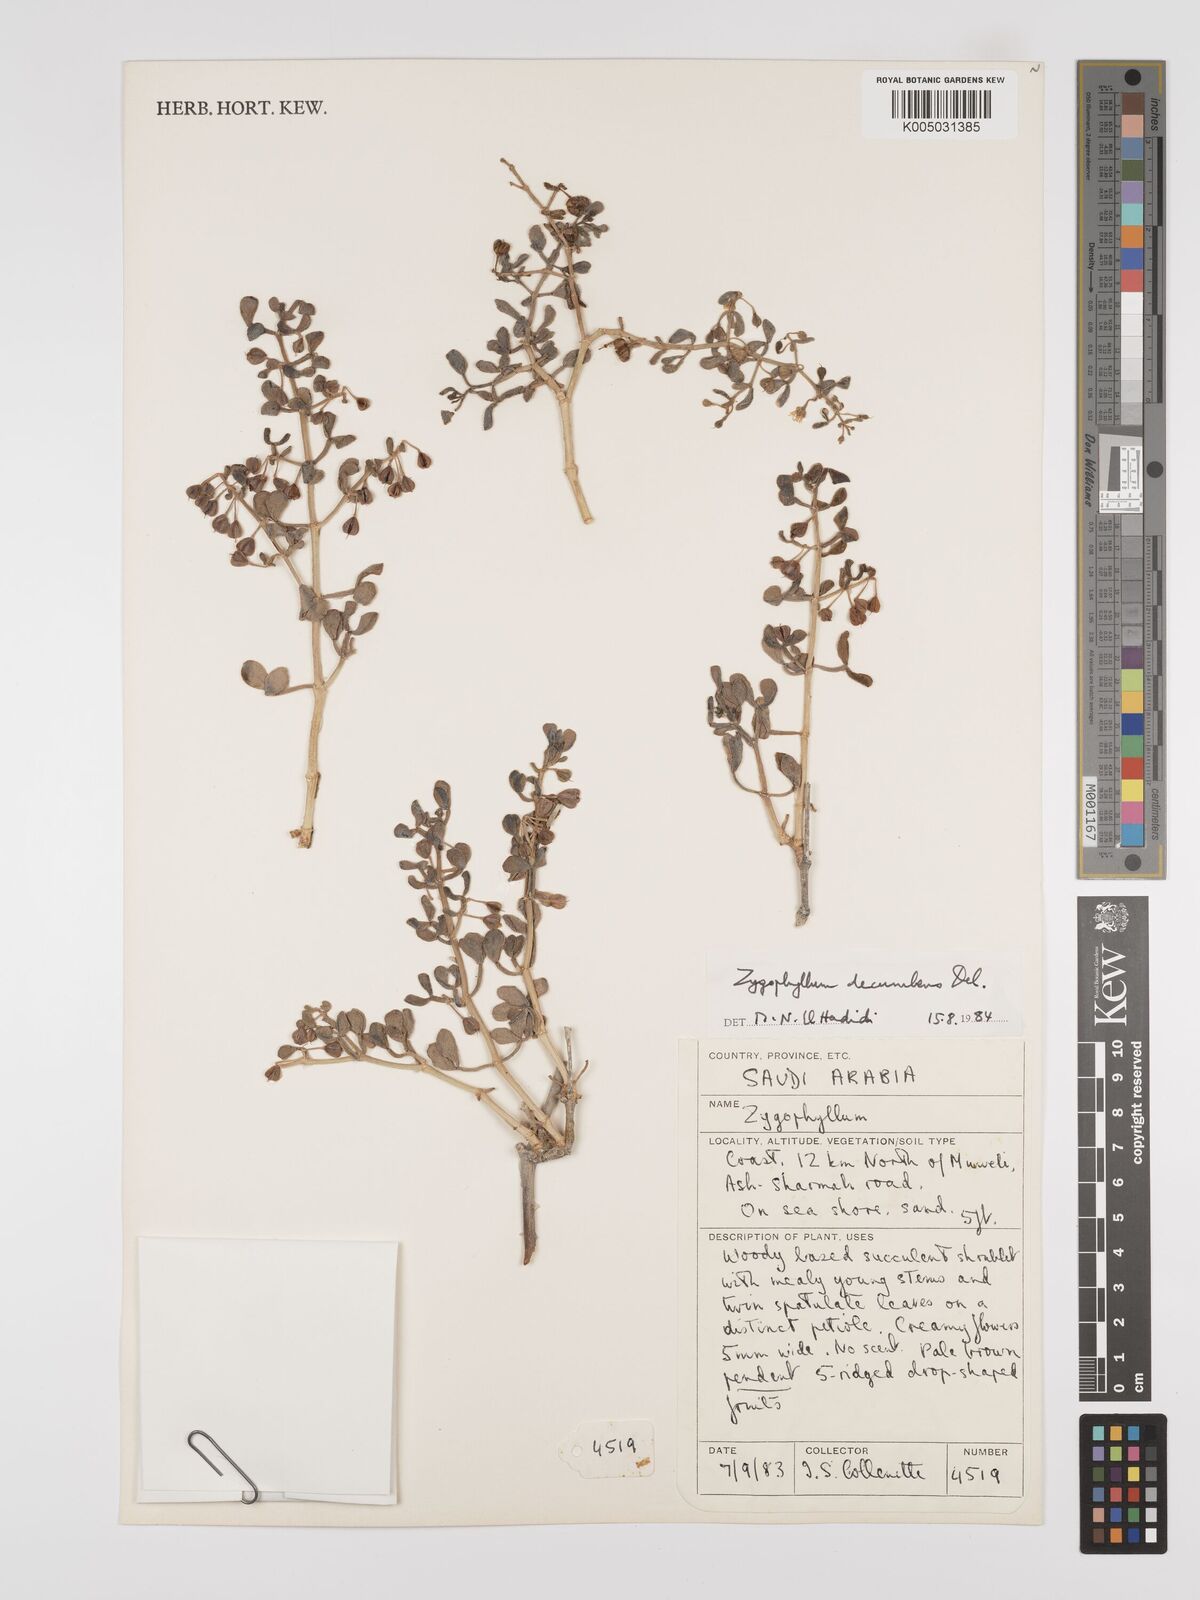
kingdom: Plantae
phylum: Tracheophyta
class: Magnoliopsida
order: Zygophyllales
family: Zygophyllaceae
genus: Tetraena
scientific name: Tetraena decumbens
